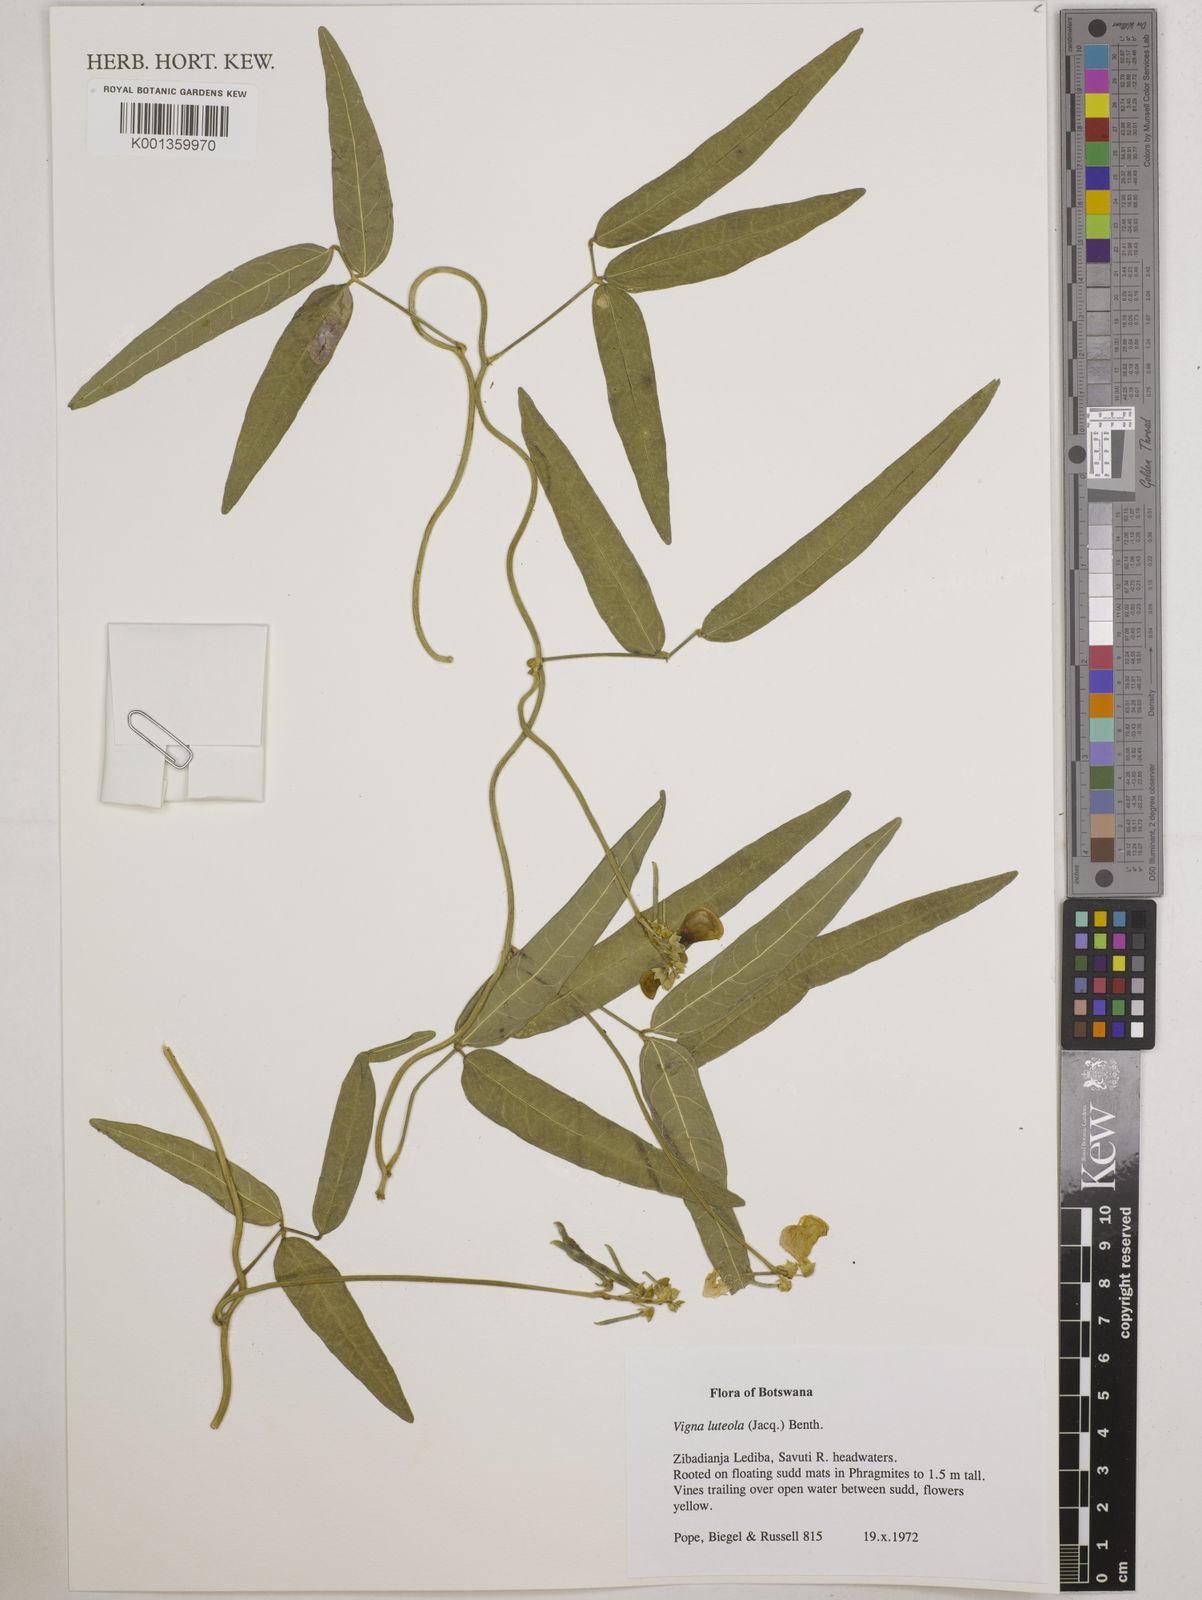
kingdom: Plantae
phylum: Tracheophyta
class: Magnoliopsida
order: Fabales
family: Fabaceae
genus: Vigna
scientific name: Vigna luteola
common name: Hairypod cowpea
